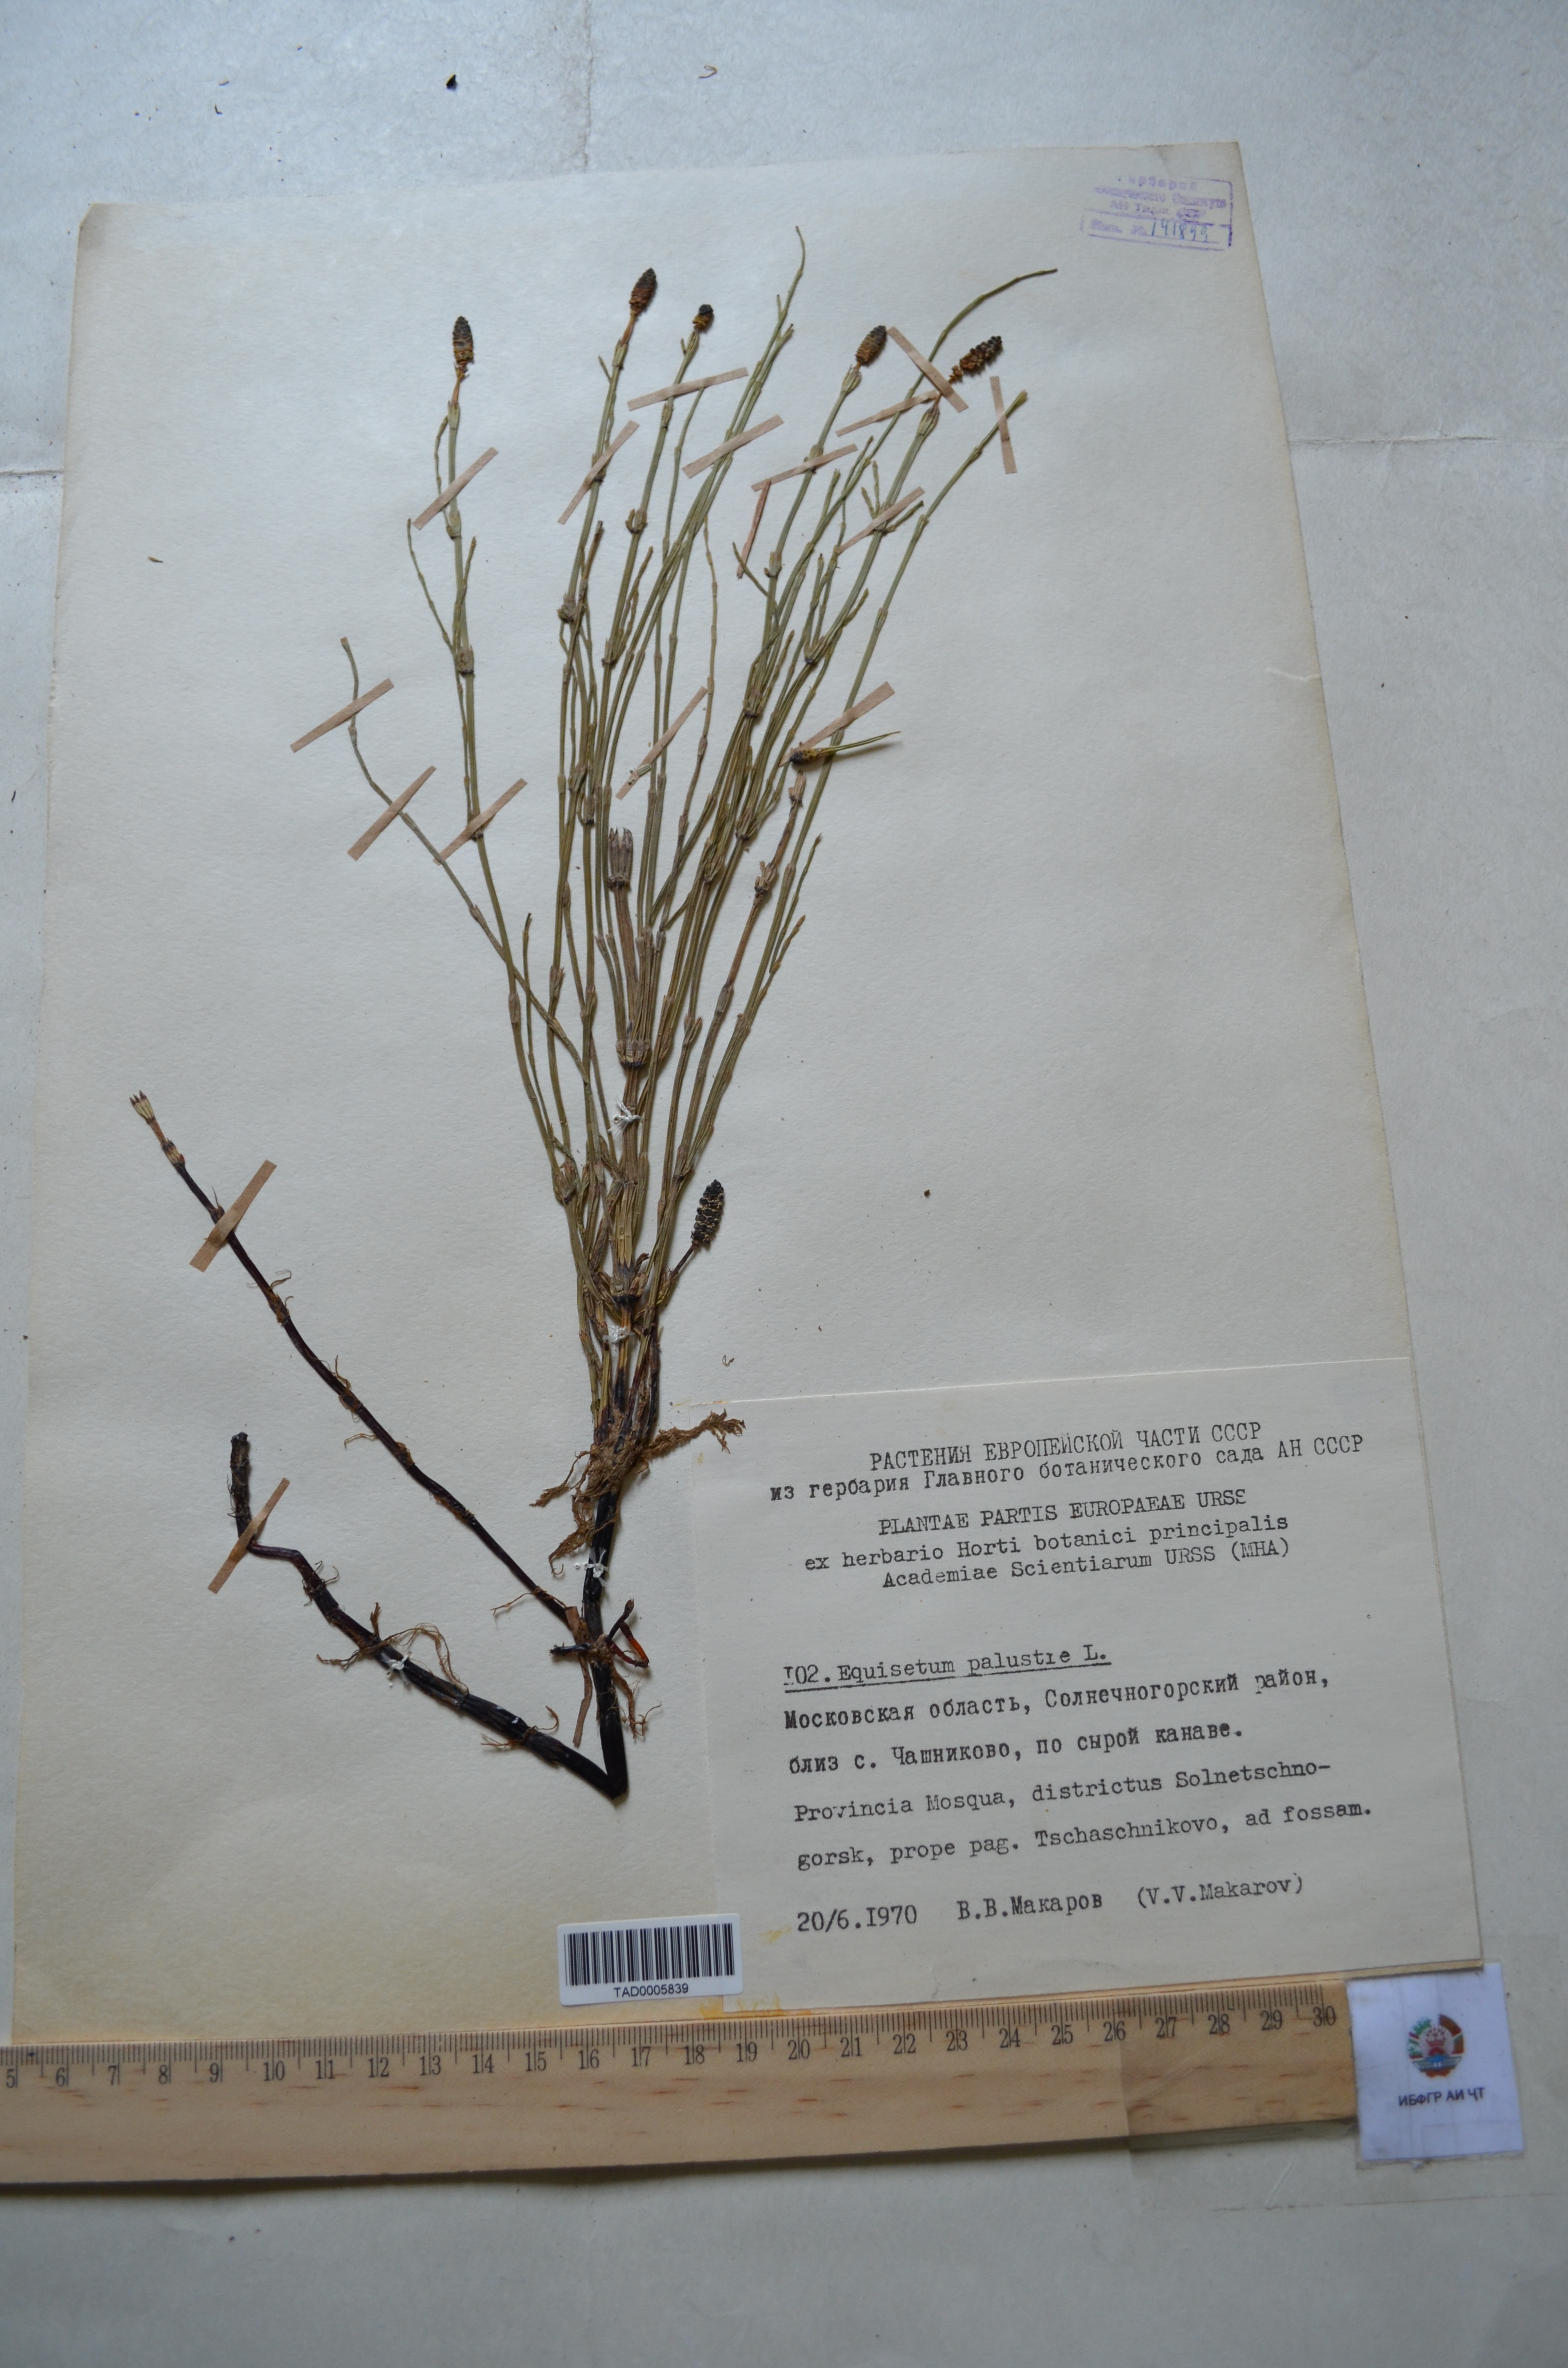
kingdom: Plantae
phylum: Tracheophyta
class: Polypodiopsida
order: Equisetales
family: Equisetaceae
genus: Equisetum
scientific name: Equisetum palustre
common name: Marsh horsetail
